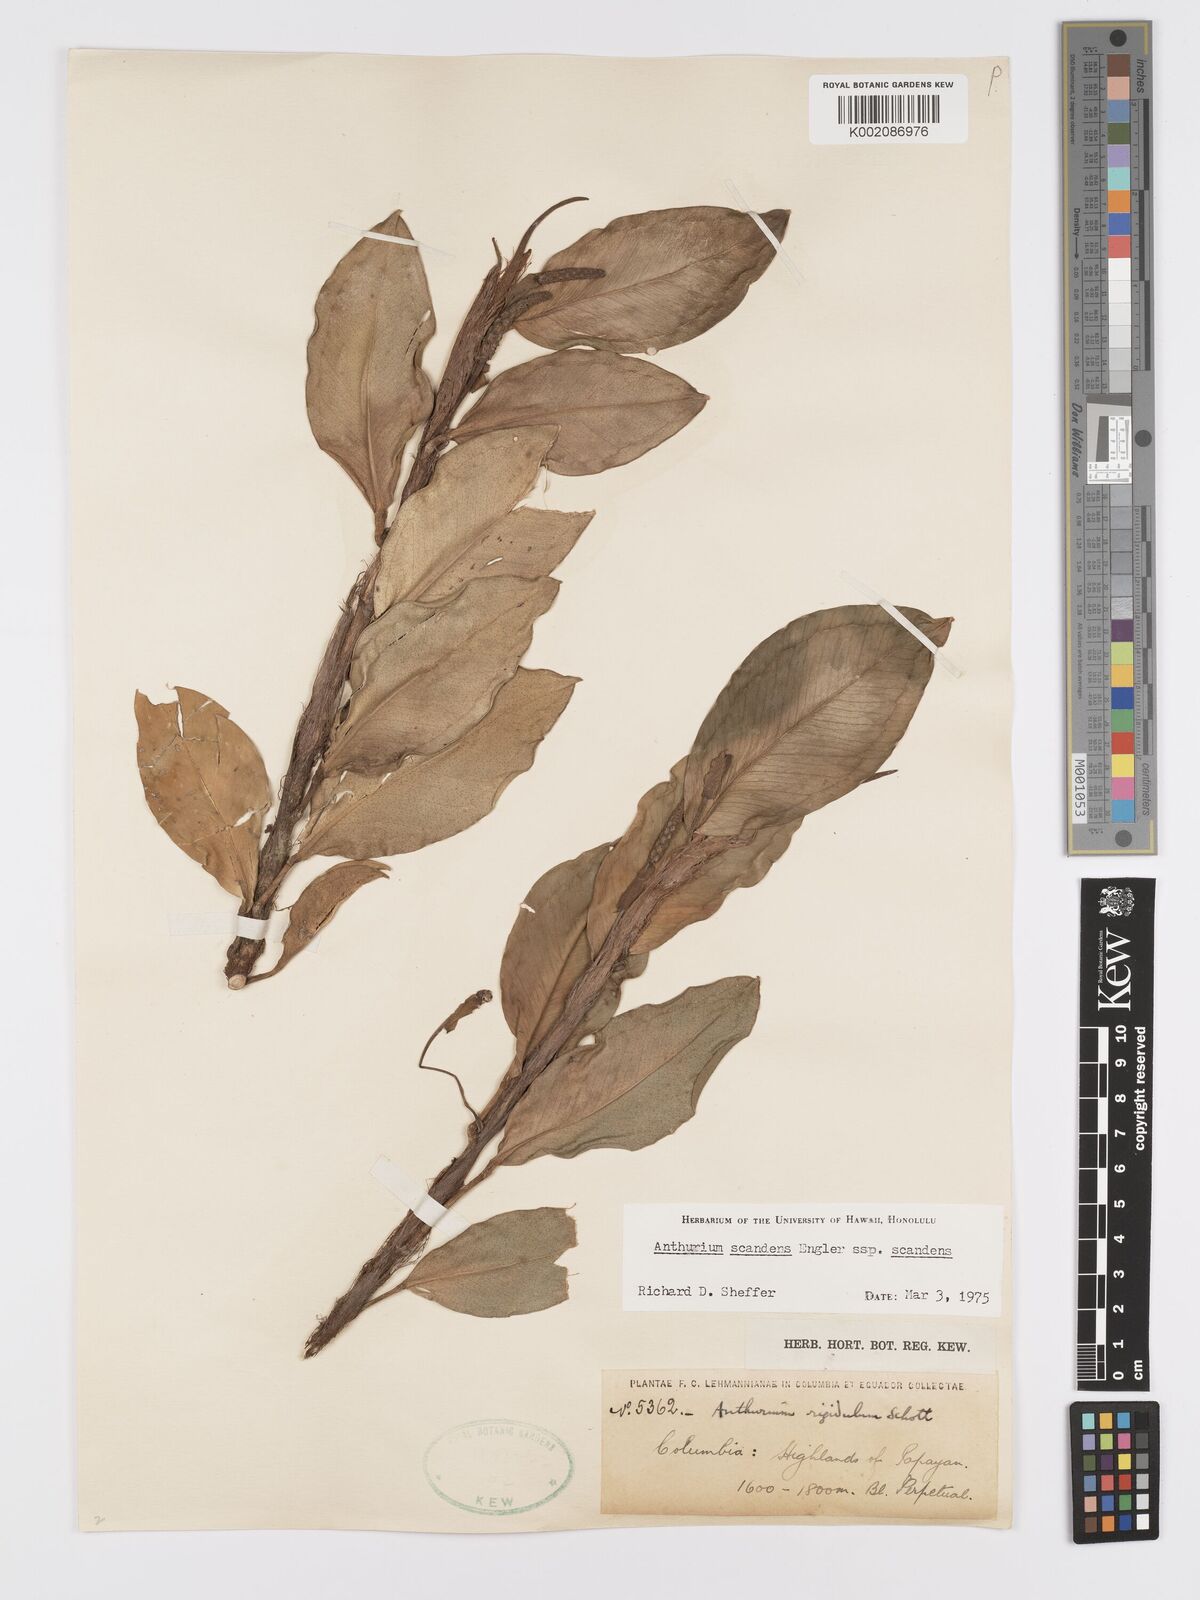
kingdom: Plantae
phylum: Tracheophyta
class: Liliopsida
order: Alismatales
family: Araceae
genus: Anthurium
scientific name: Anthurium scandens
